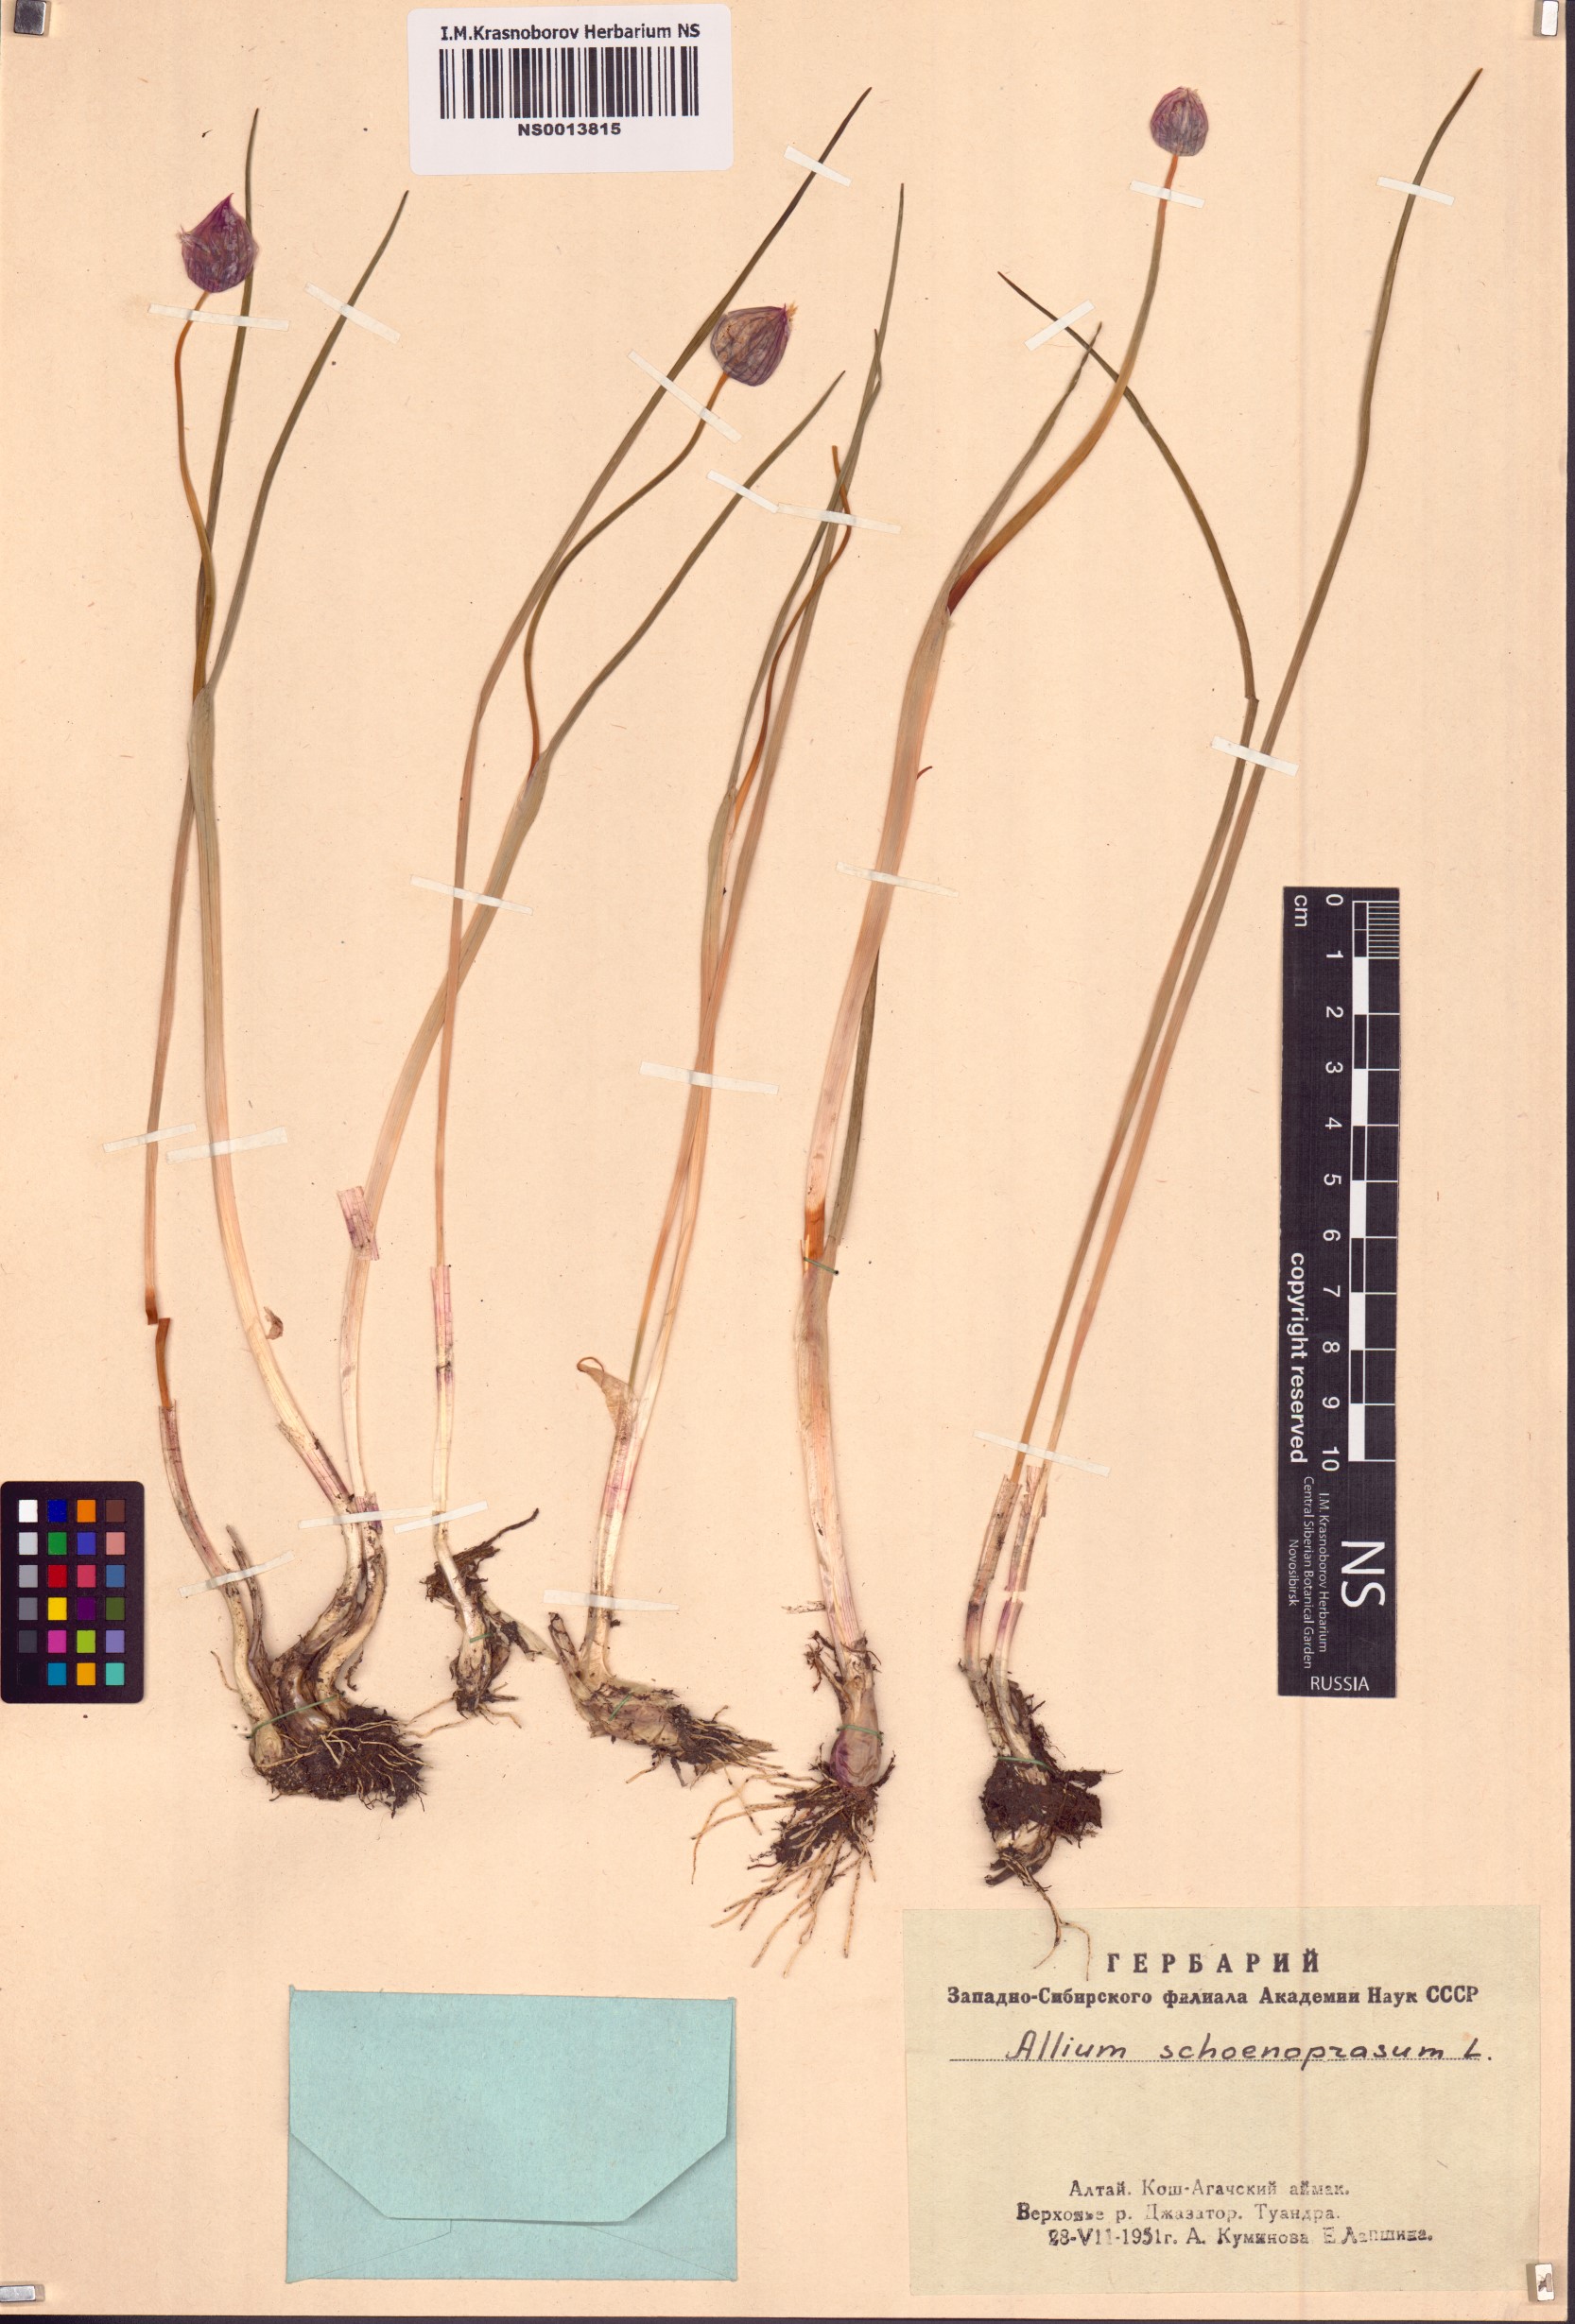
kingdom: Plantae
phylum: Tracheophyta
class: Liliopsida
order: Asparagales
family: Amaryllidaceae
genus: Allium
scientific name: Allium schoenoprasum
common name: Chives
